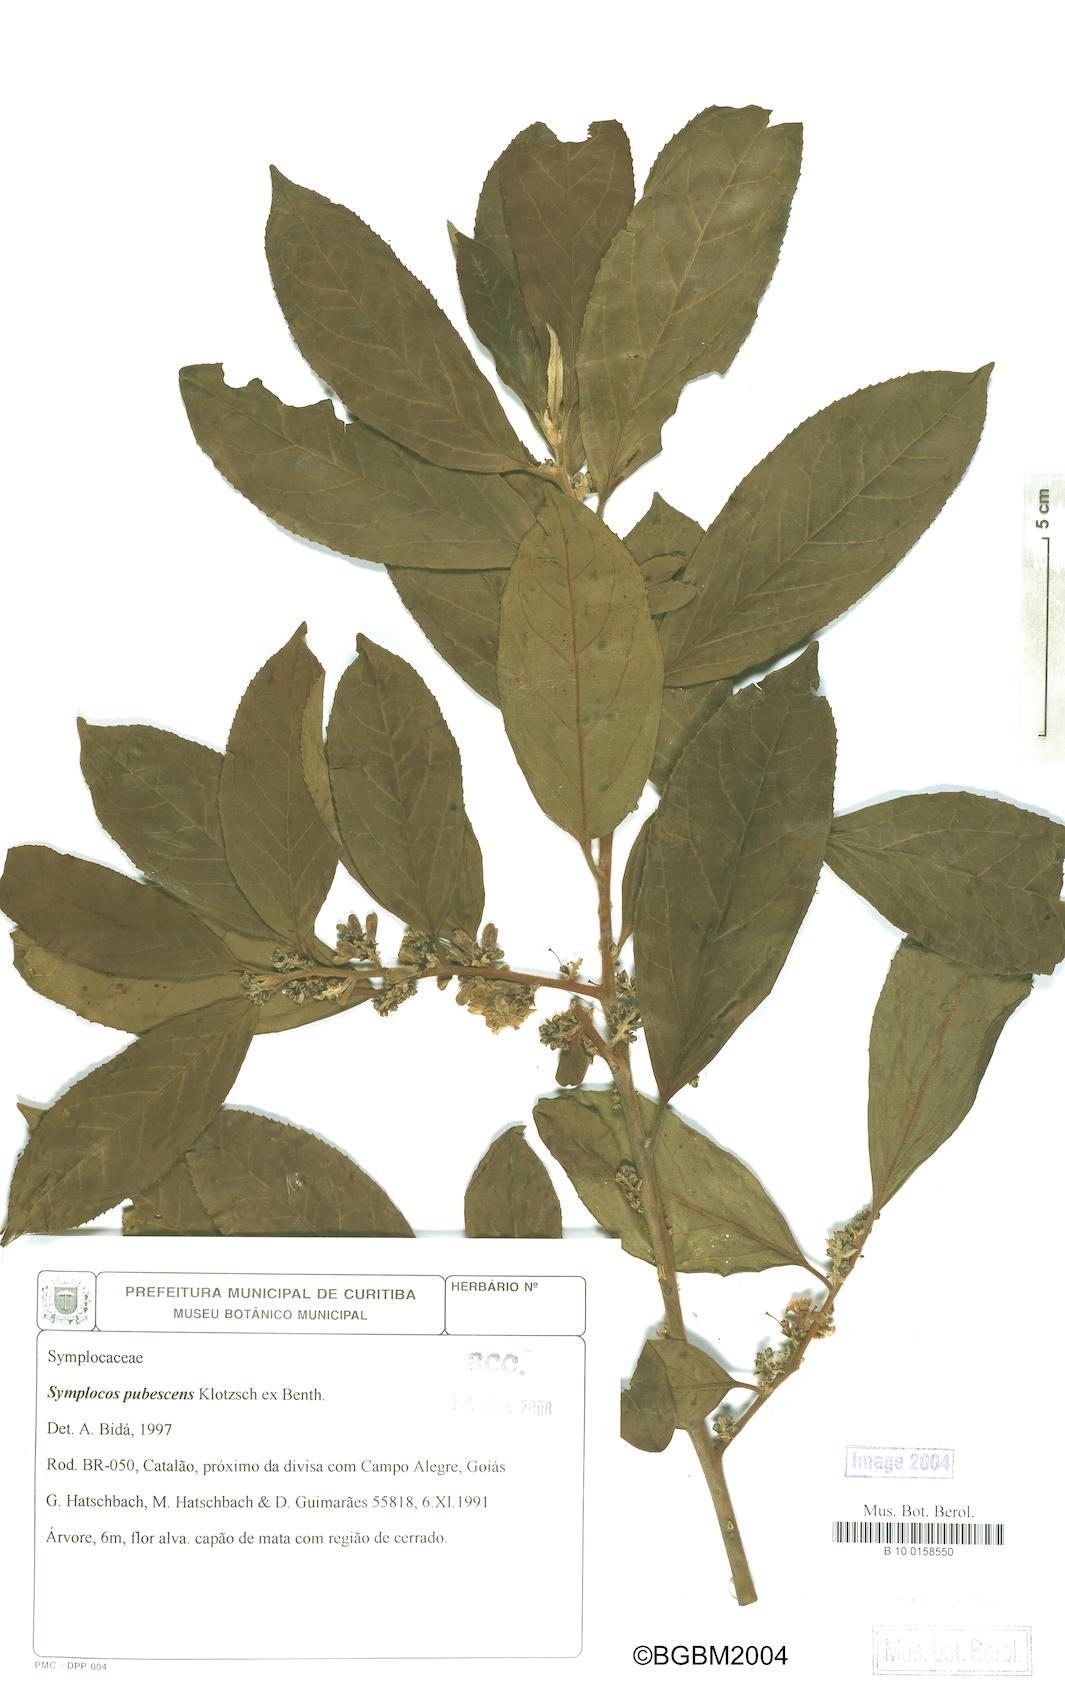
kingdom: Plantae
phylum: Tracheophyta
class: Magnoliopsida
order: Ericales
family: Symplocaceae
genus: Symplocos
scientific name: Symplocos pubescens
